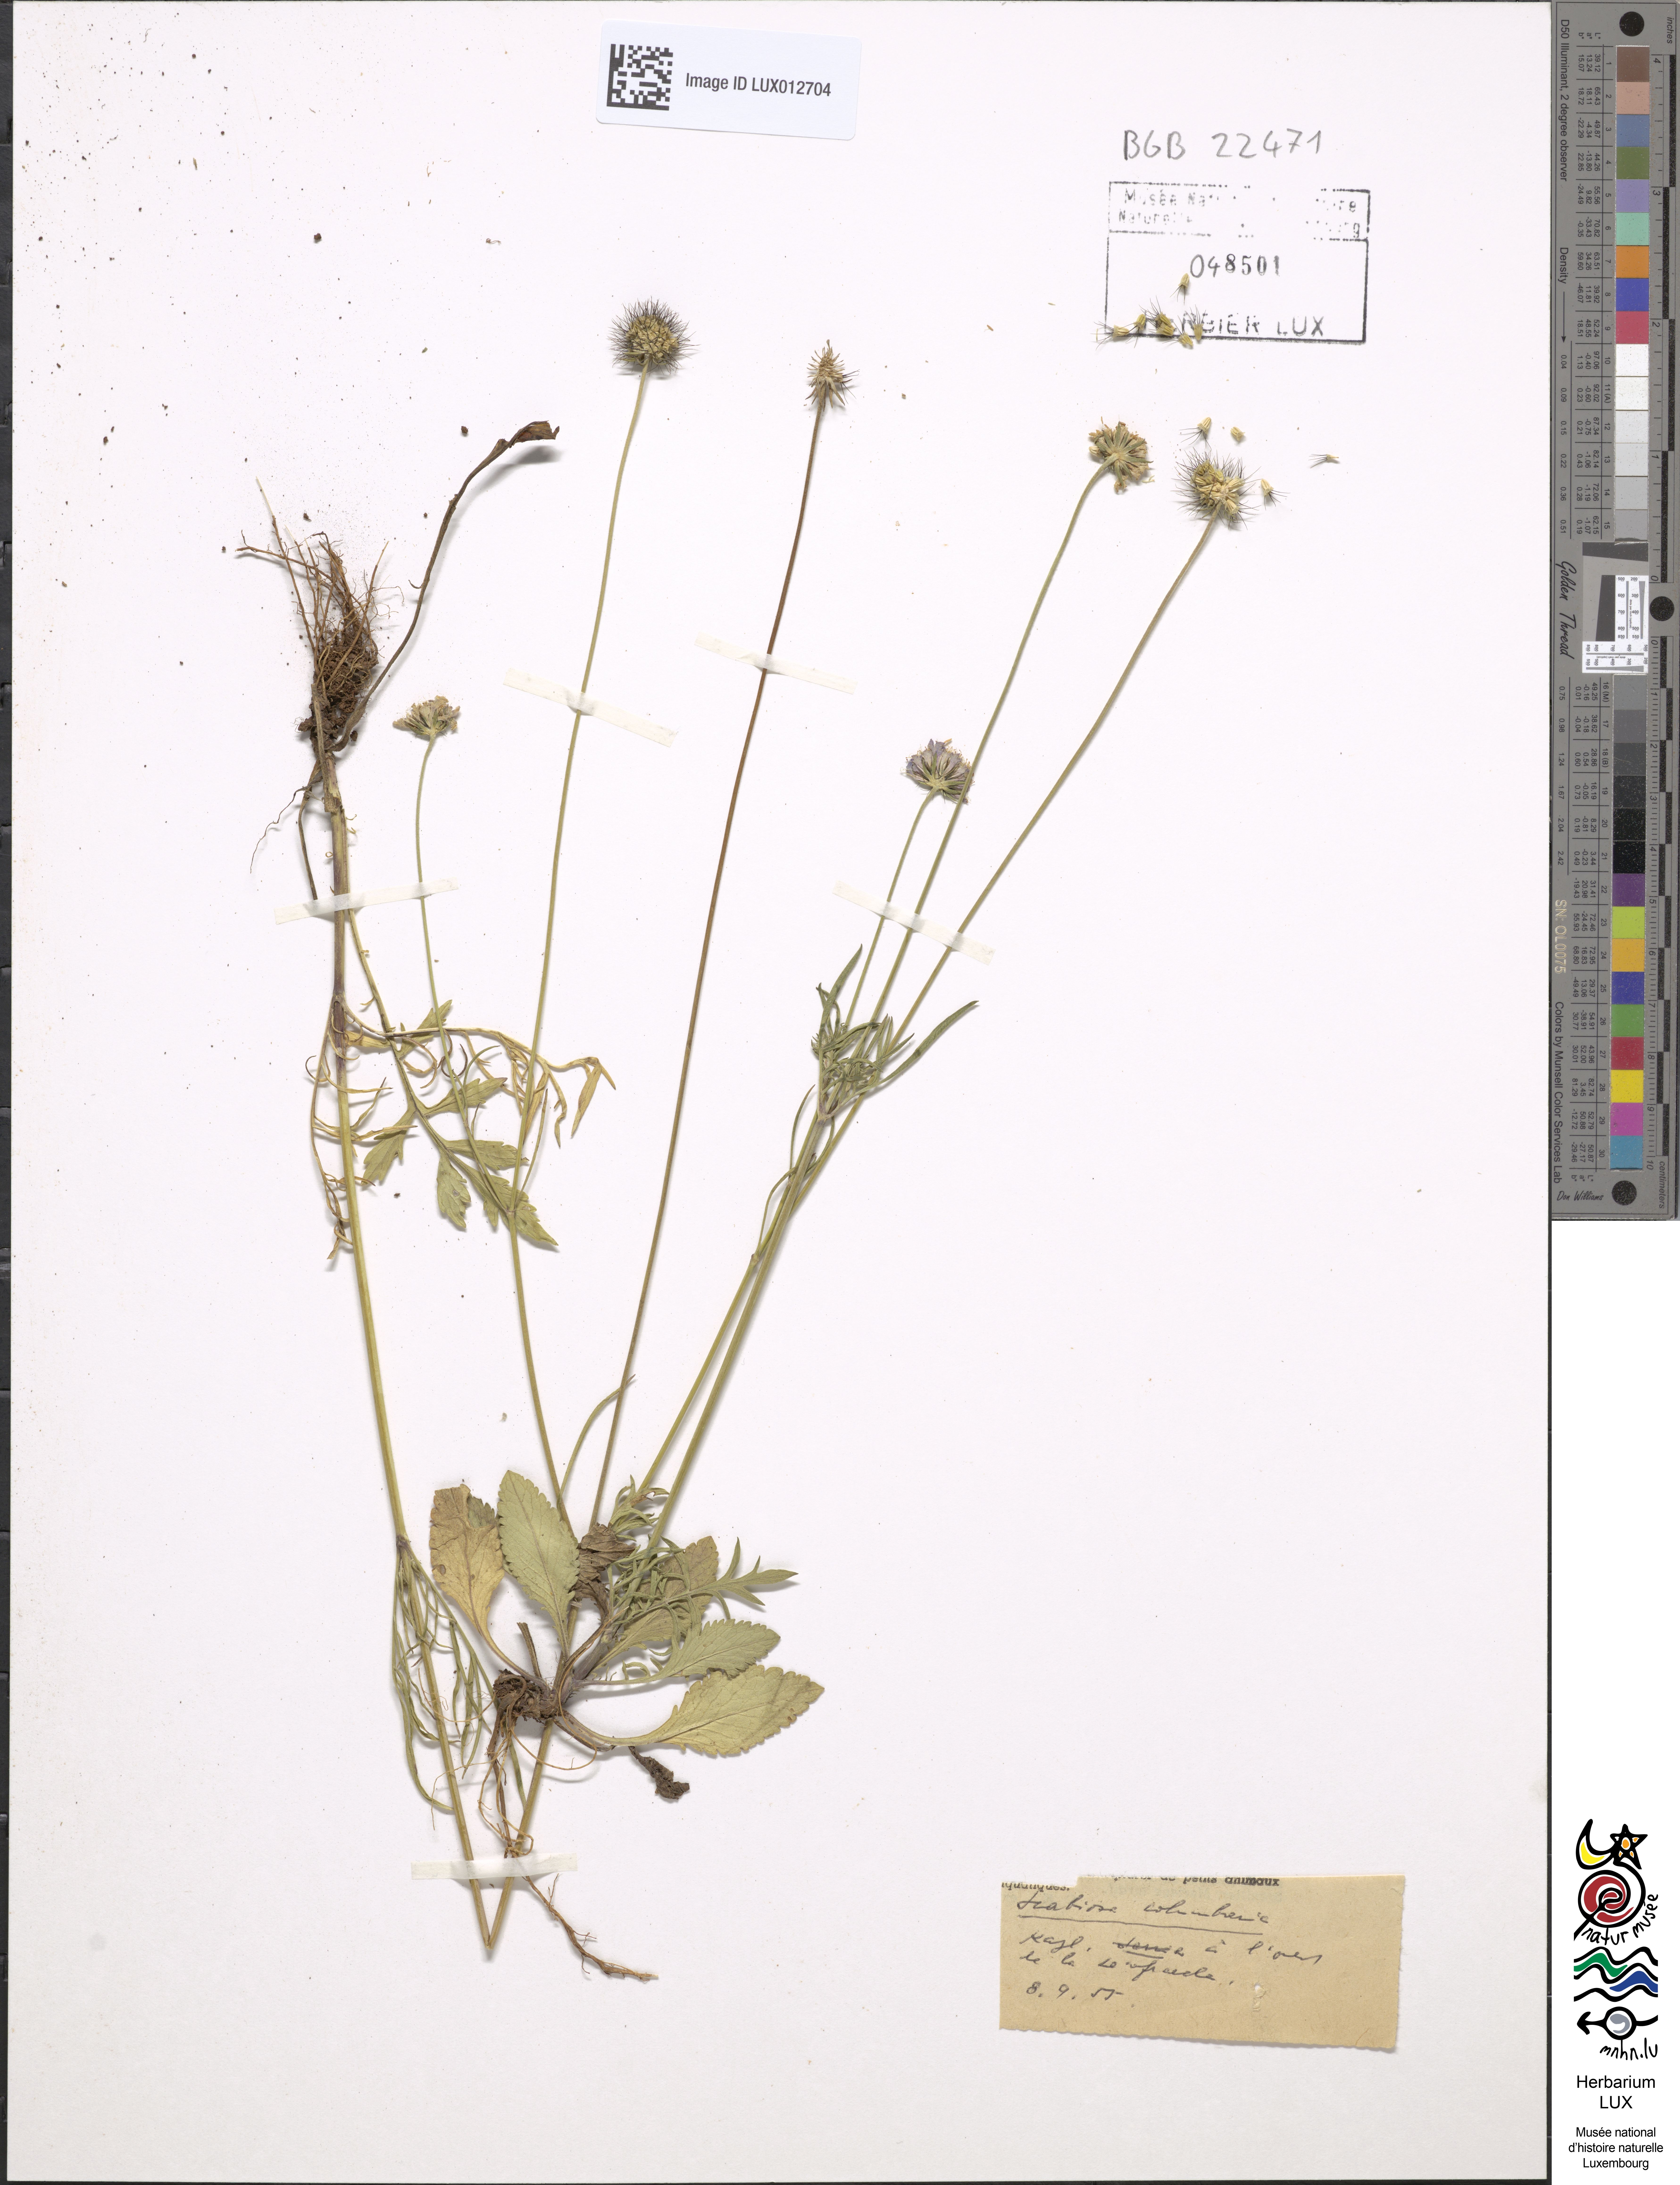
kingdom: Plantae
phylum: Tracheophyta
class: Magnoliopsida
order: Dipsacales
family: Caprifoliaceae
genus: Scabiosa
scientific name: Scabiosa columbaria
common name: Small scabious
